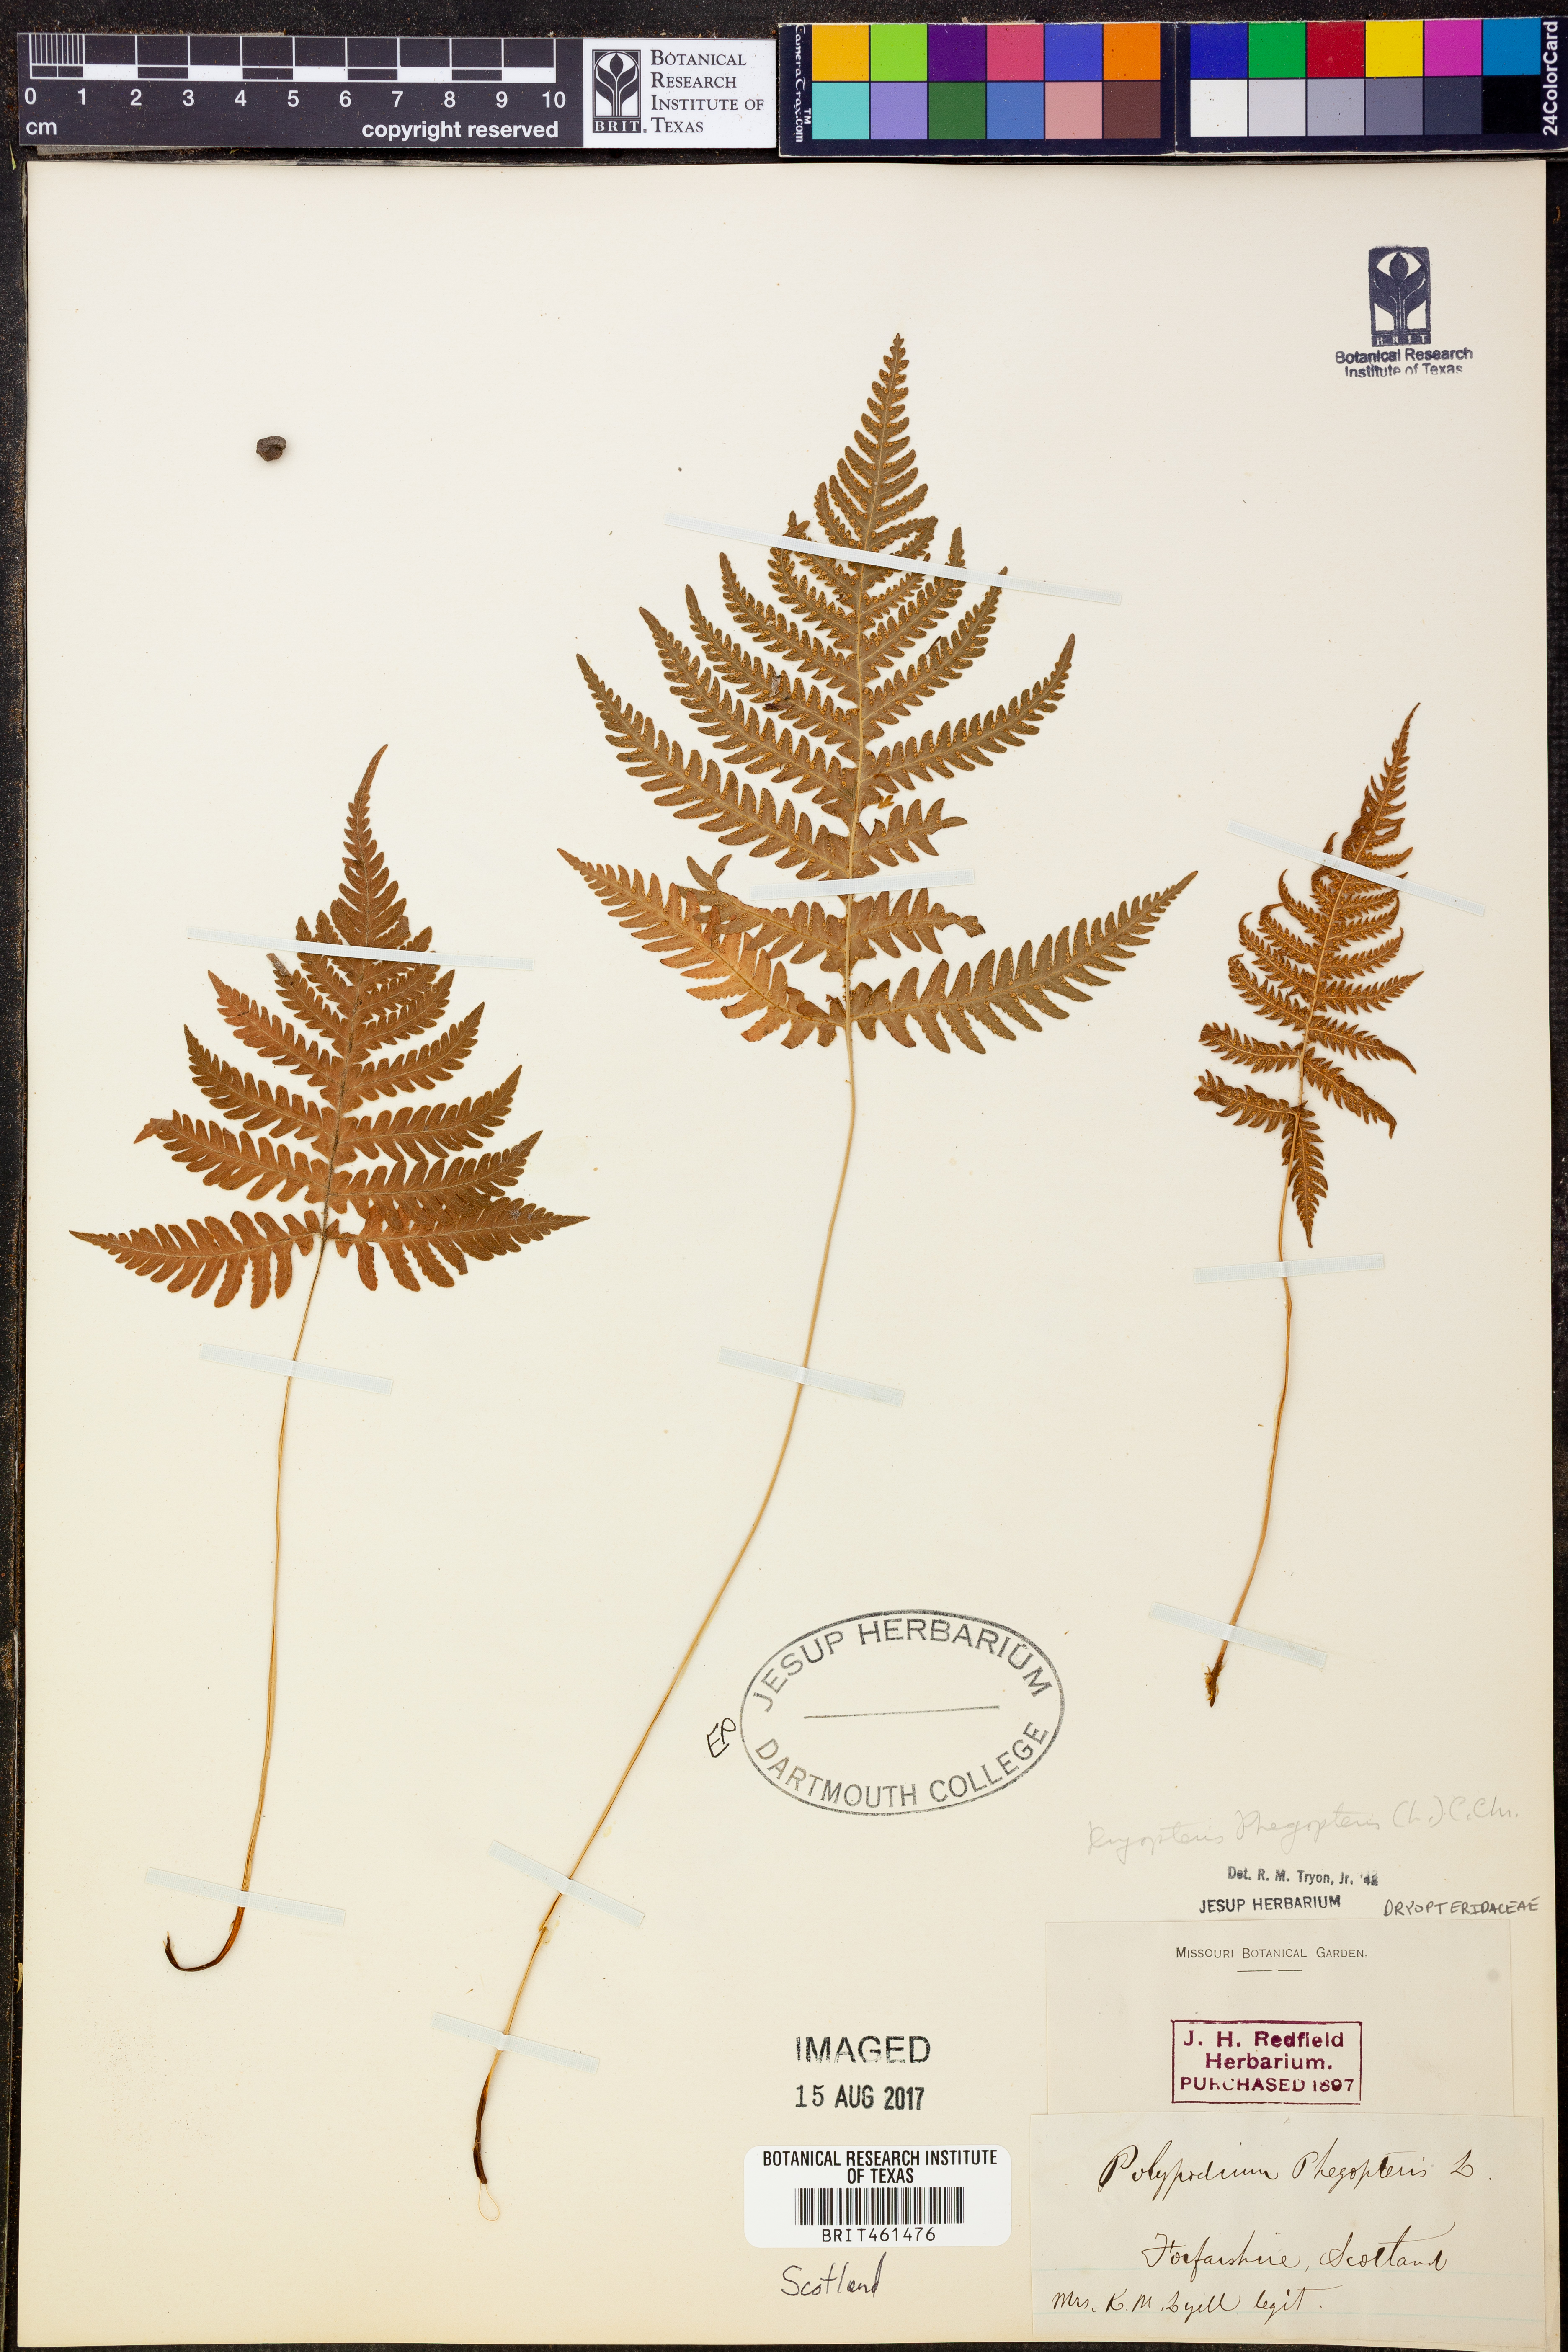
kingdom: Plantae
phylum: Tracheophyta
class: Polypodiopsida
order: Polypodiales
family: Thelypteridaceae
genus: Phegopteris
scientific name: Phegopteris connectilis
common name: Beech fern
